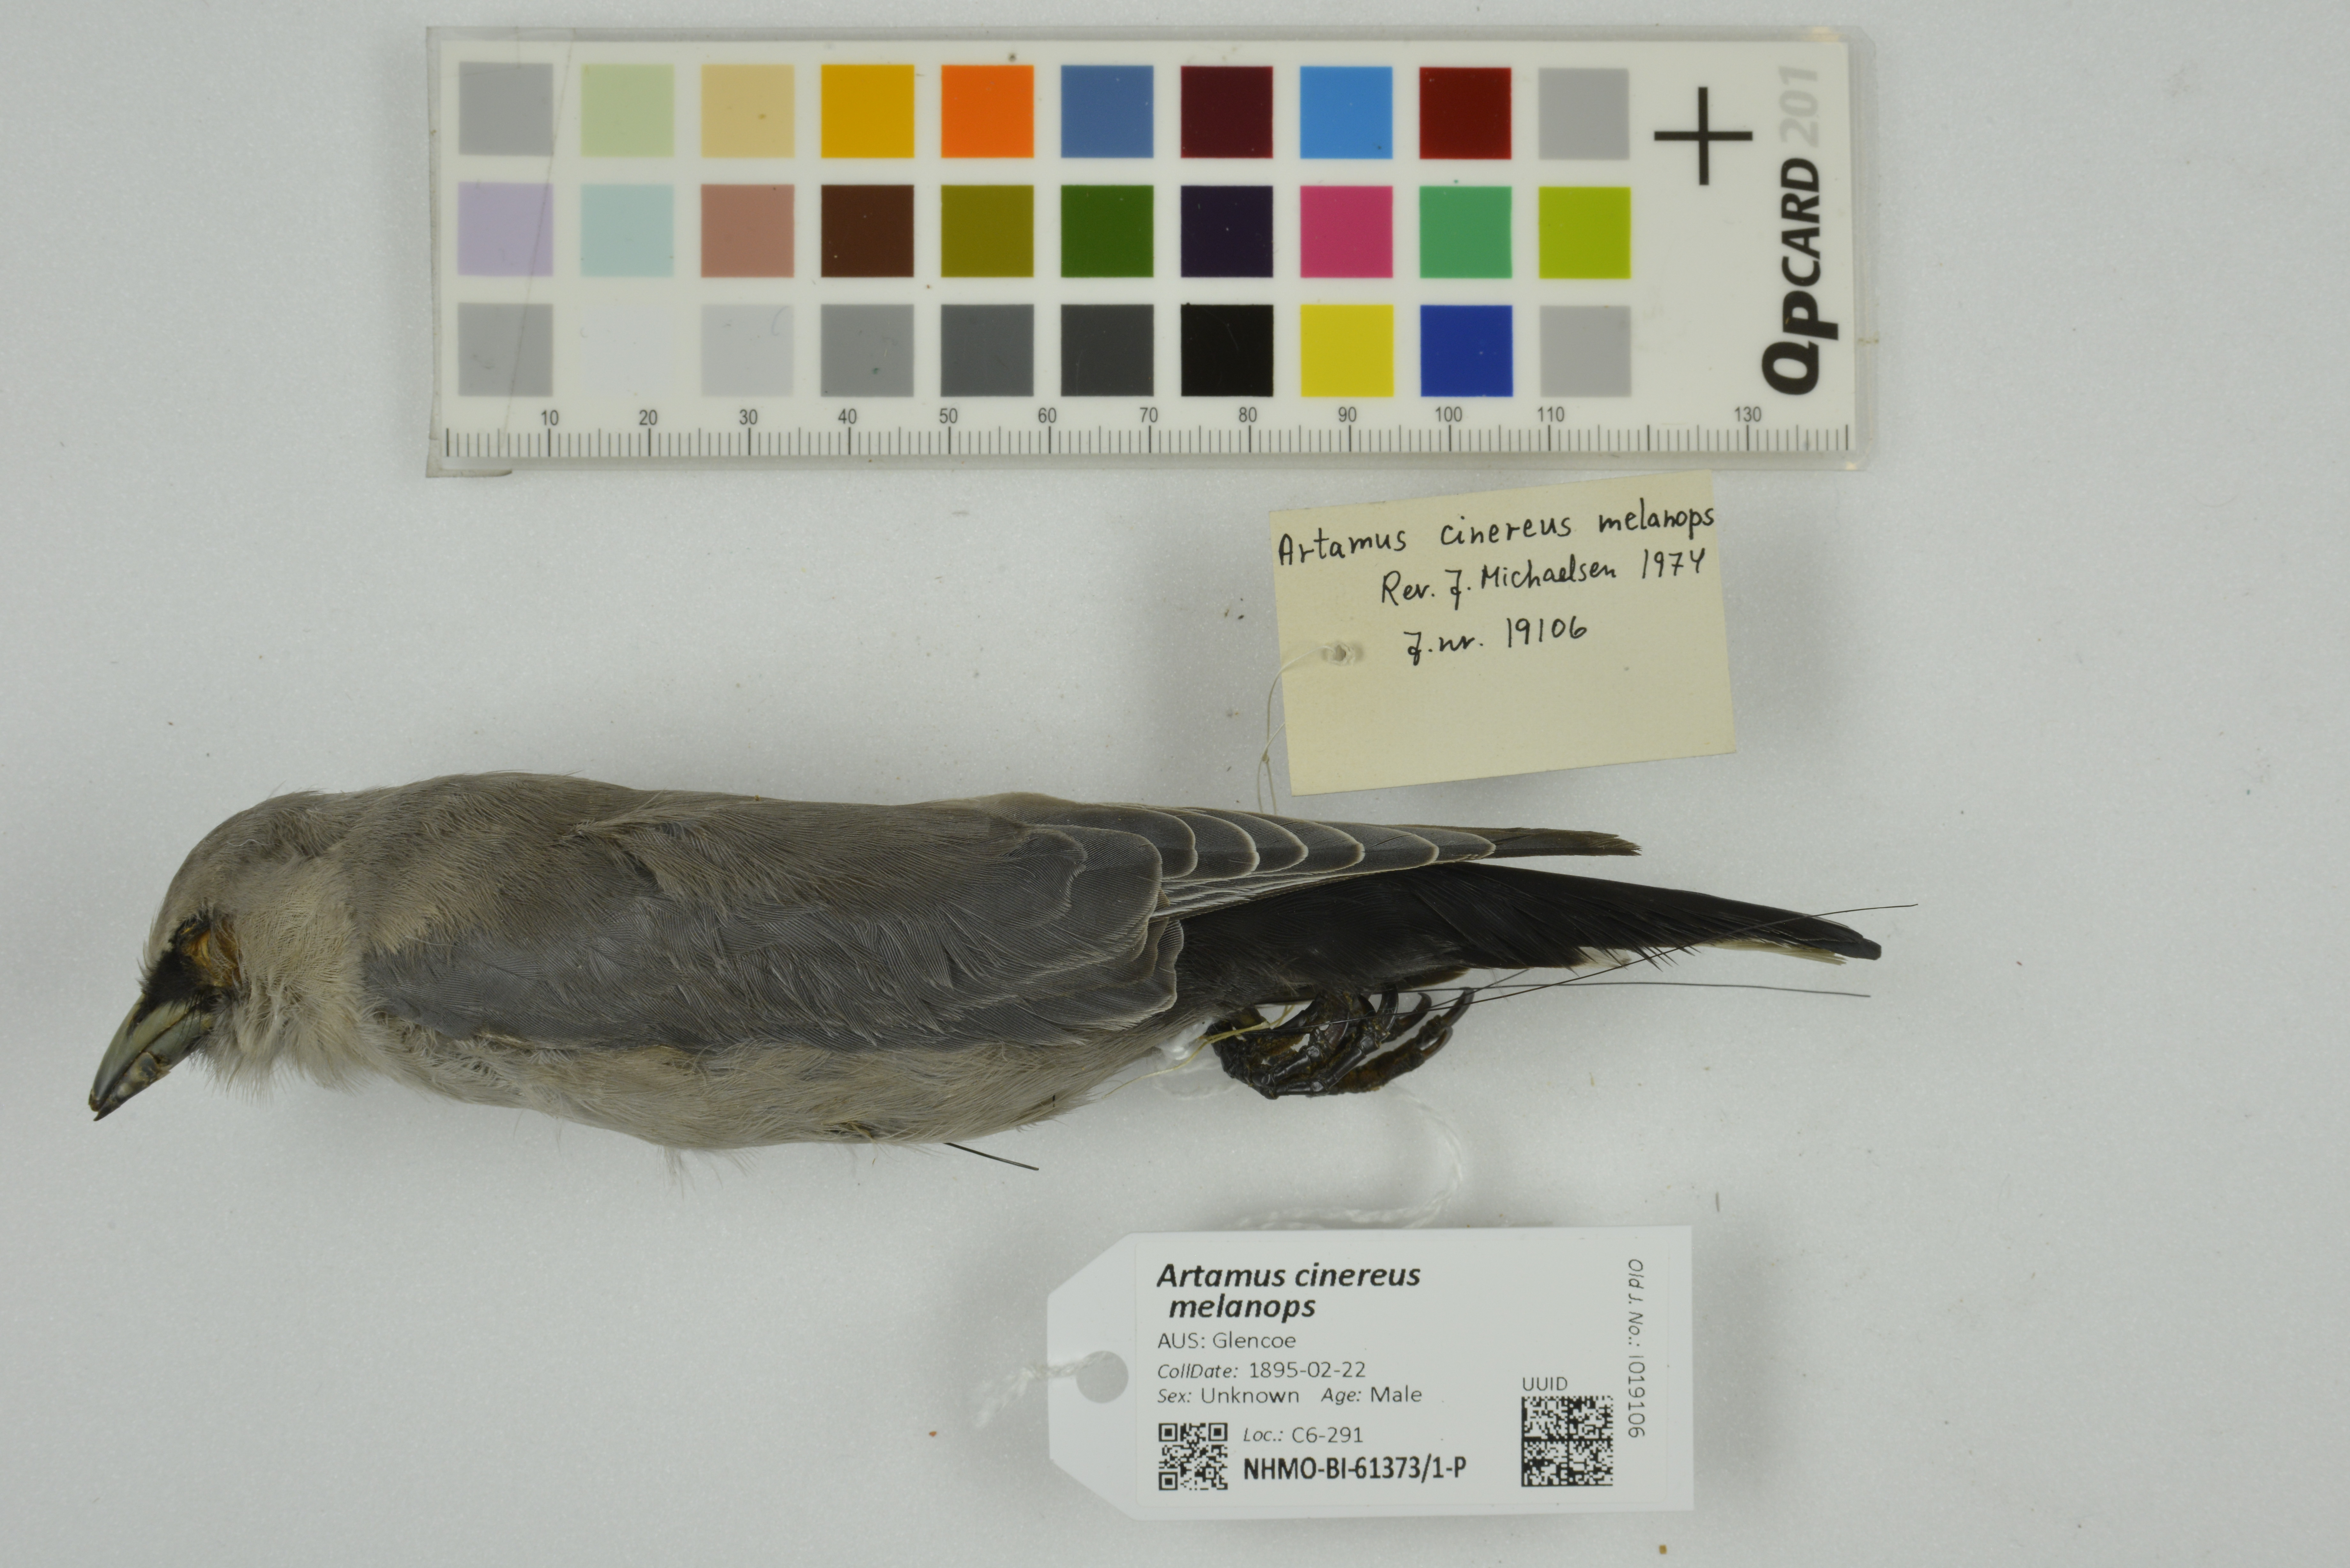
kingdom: Animalia
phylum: Chordata
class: Aves
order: Passeriformes
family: Artamidae
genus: Artamus
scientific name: Artamus cinereus
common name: Black-faced woodswallow
